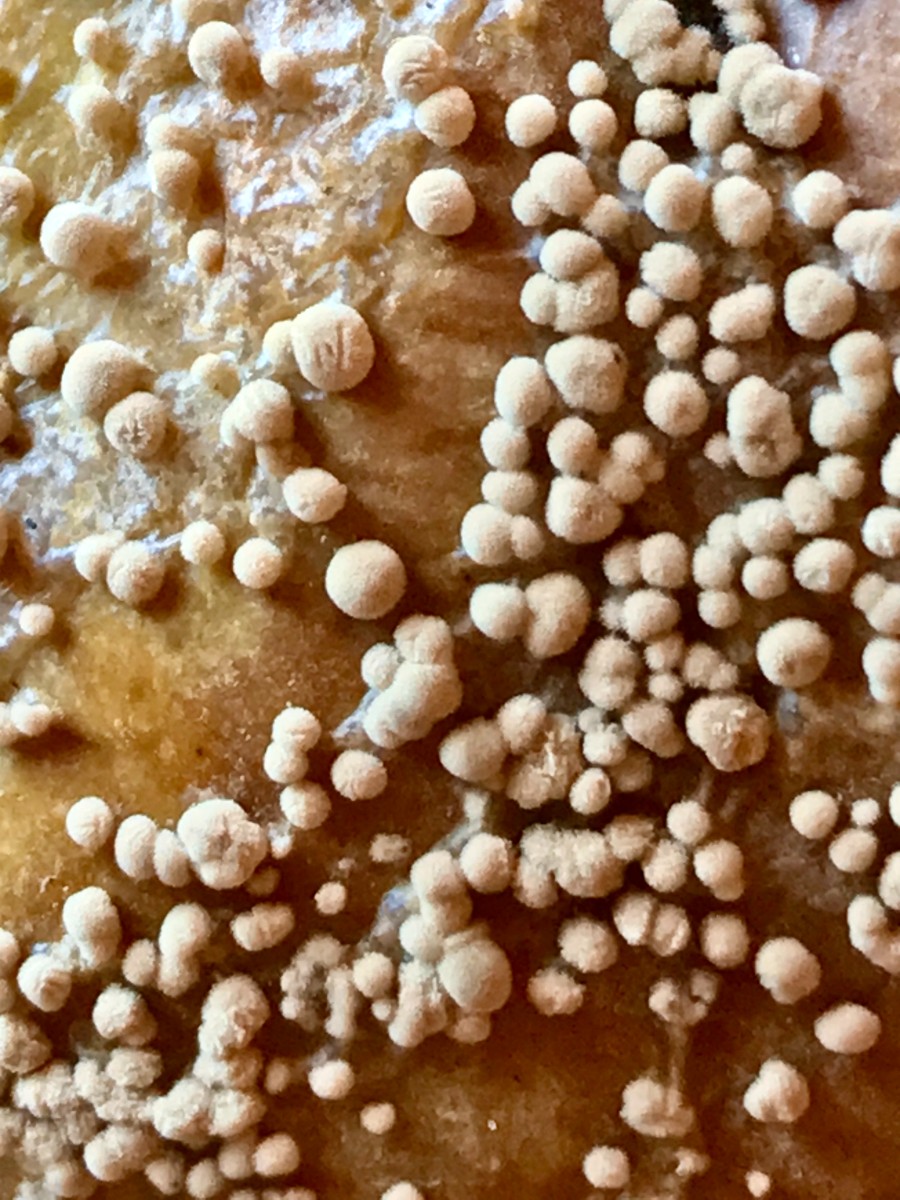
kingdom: Fungi
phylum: Ascomycota
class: Leotiomycetes
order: Helotiales
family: Sclerotiniaceae
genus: Monilinia
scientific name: Monilinia fructigena
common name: æble-knoldskive
